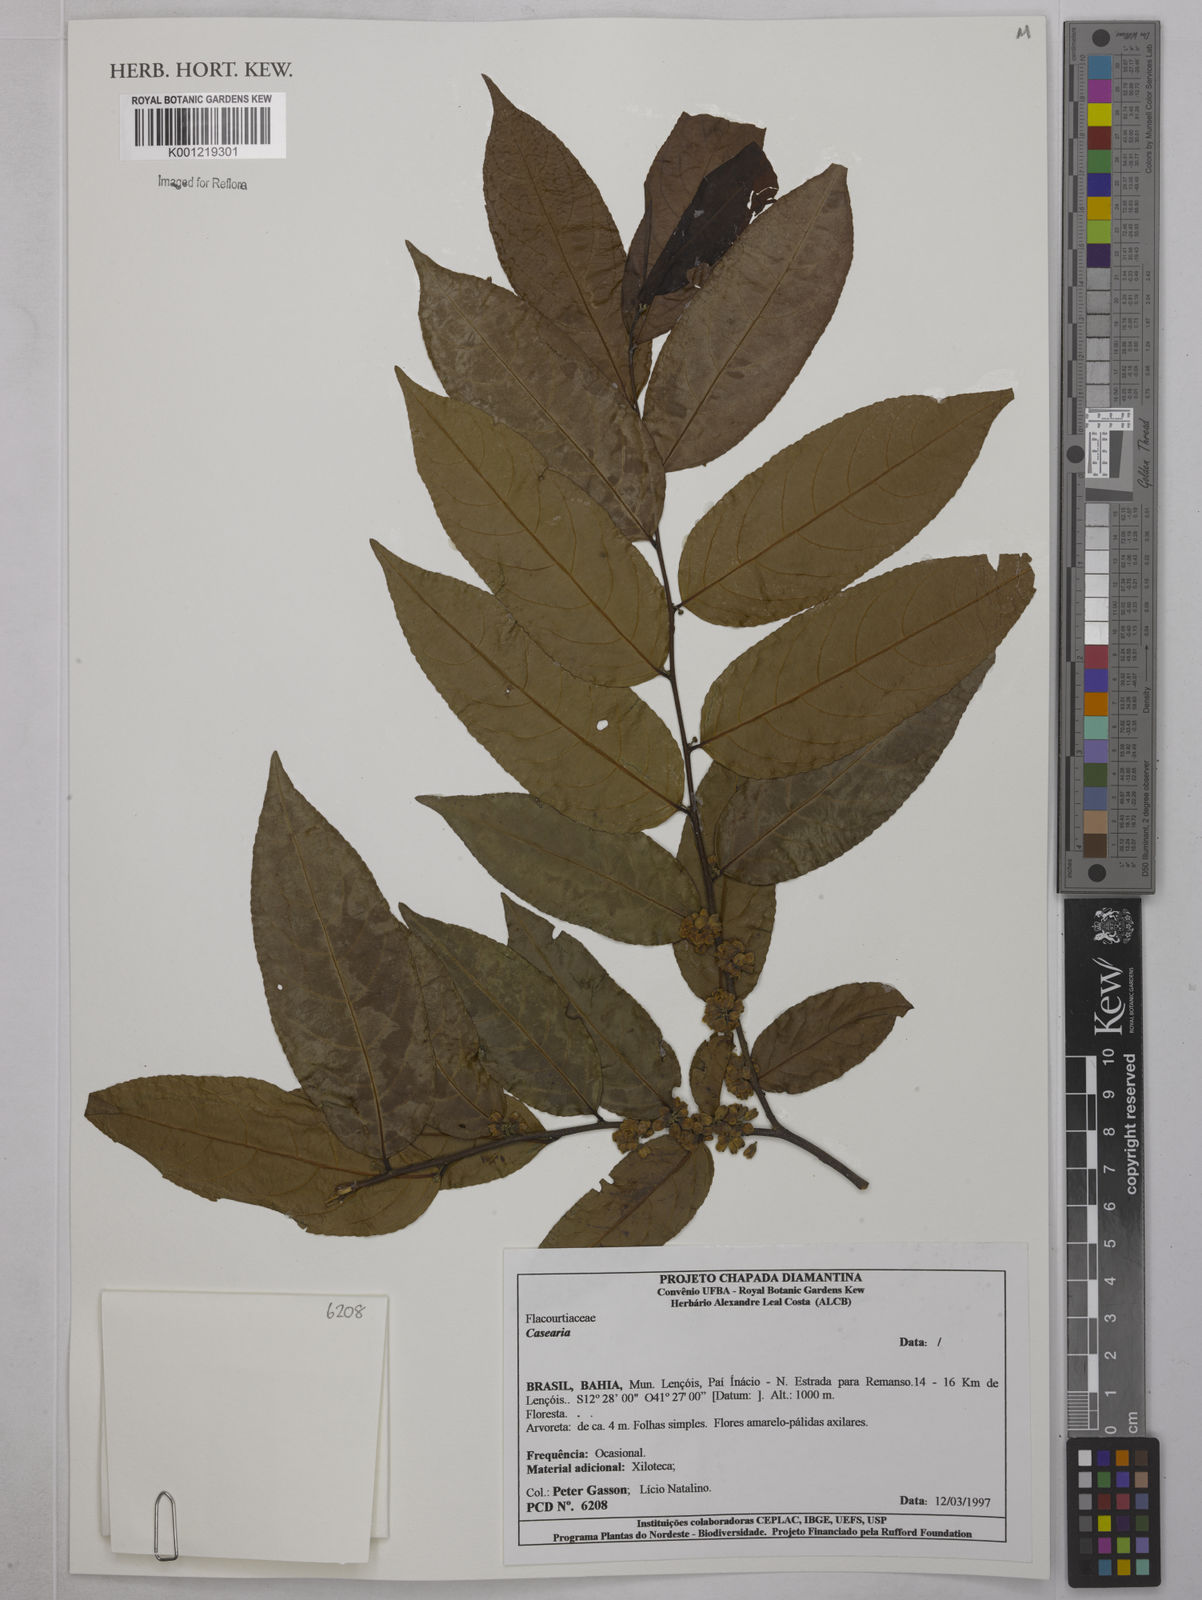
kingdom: Plantae
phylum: Tracheophyta
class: Magnoliopsida
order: Malpighiales
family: Salicaceae
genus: Casearia
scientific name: Casearia
